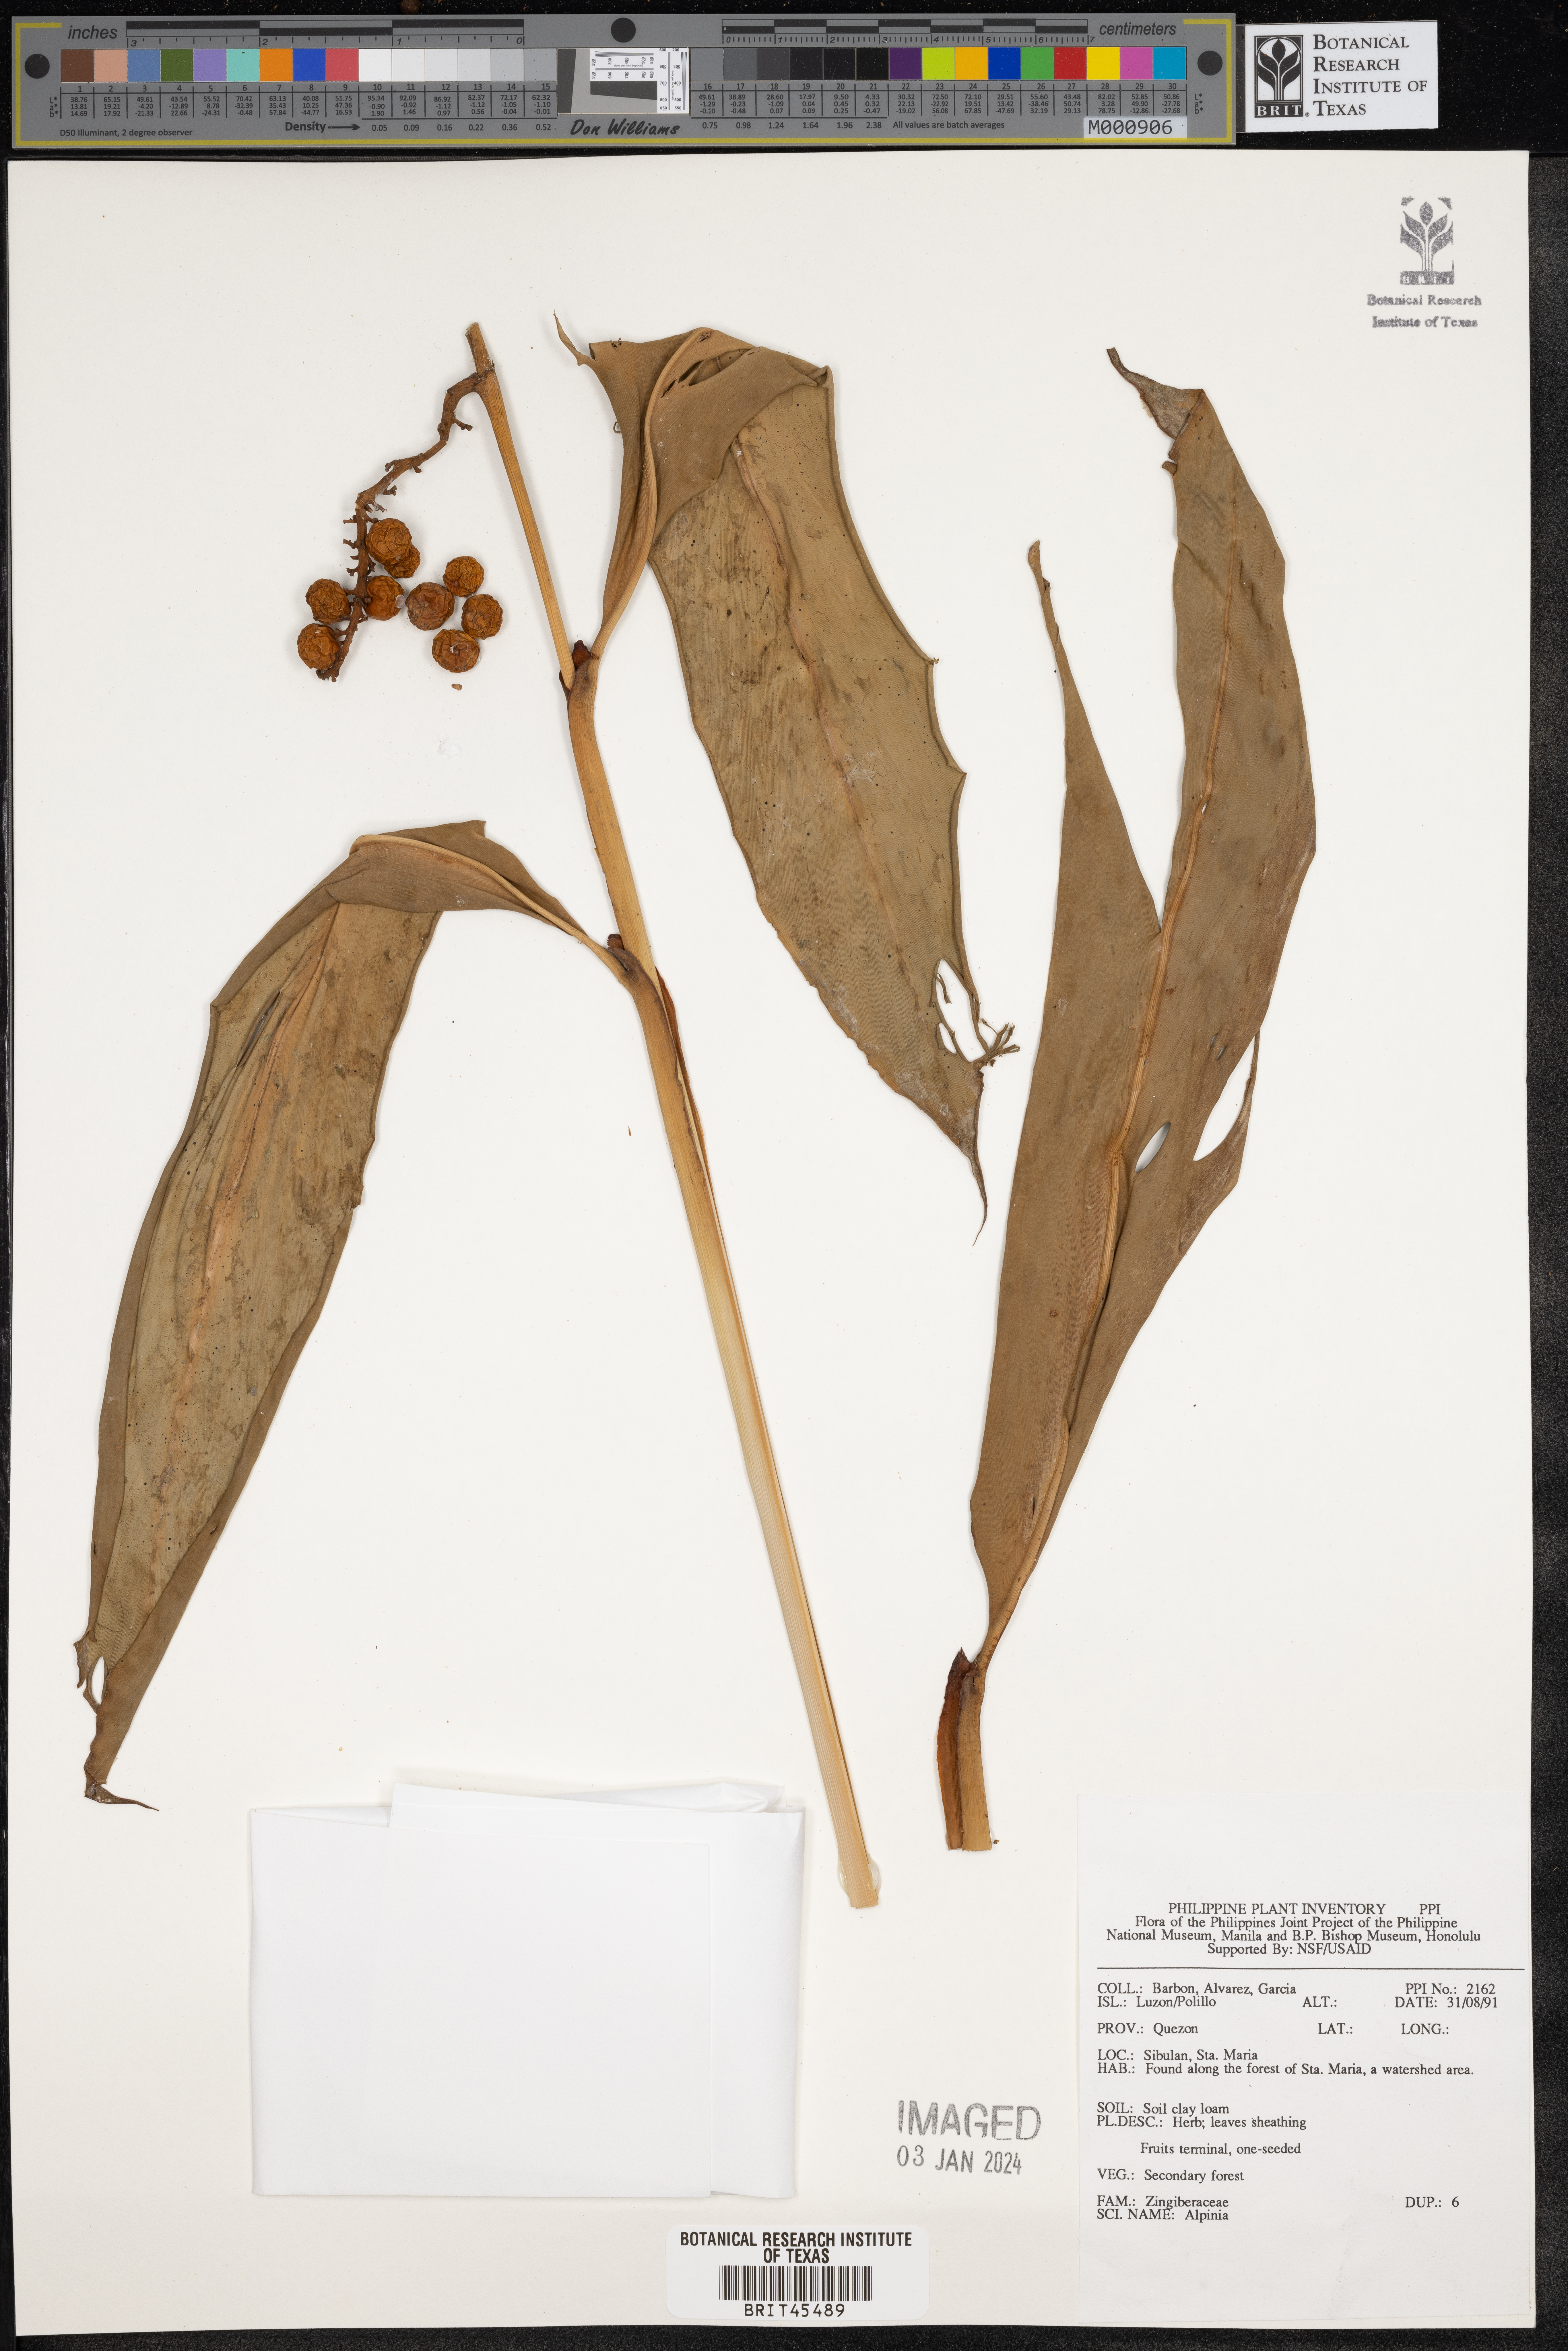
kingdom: Plantae
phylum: Tracheophyta
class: Liliopsida
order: Zingiberales
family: Zingiberaceae
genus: Alpinia
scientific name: Alpinia
